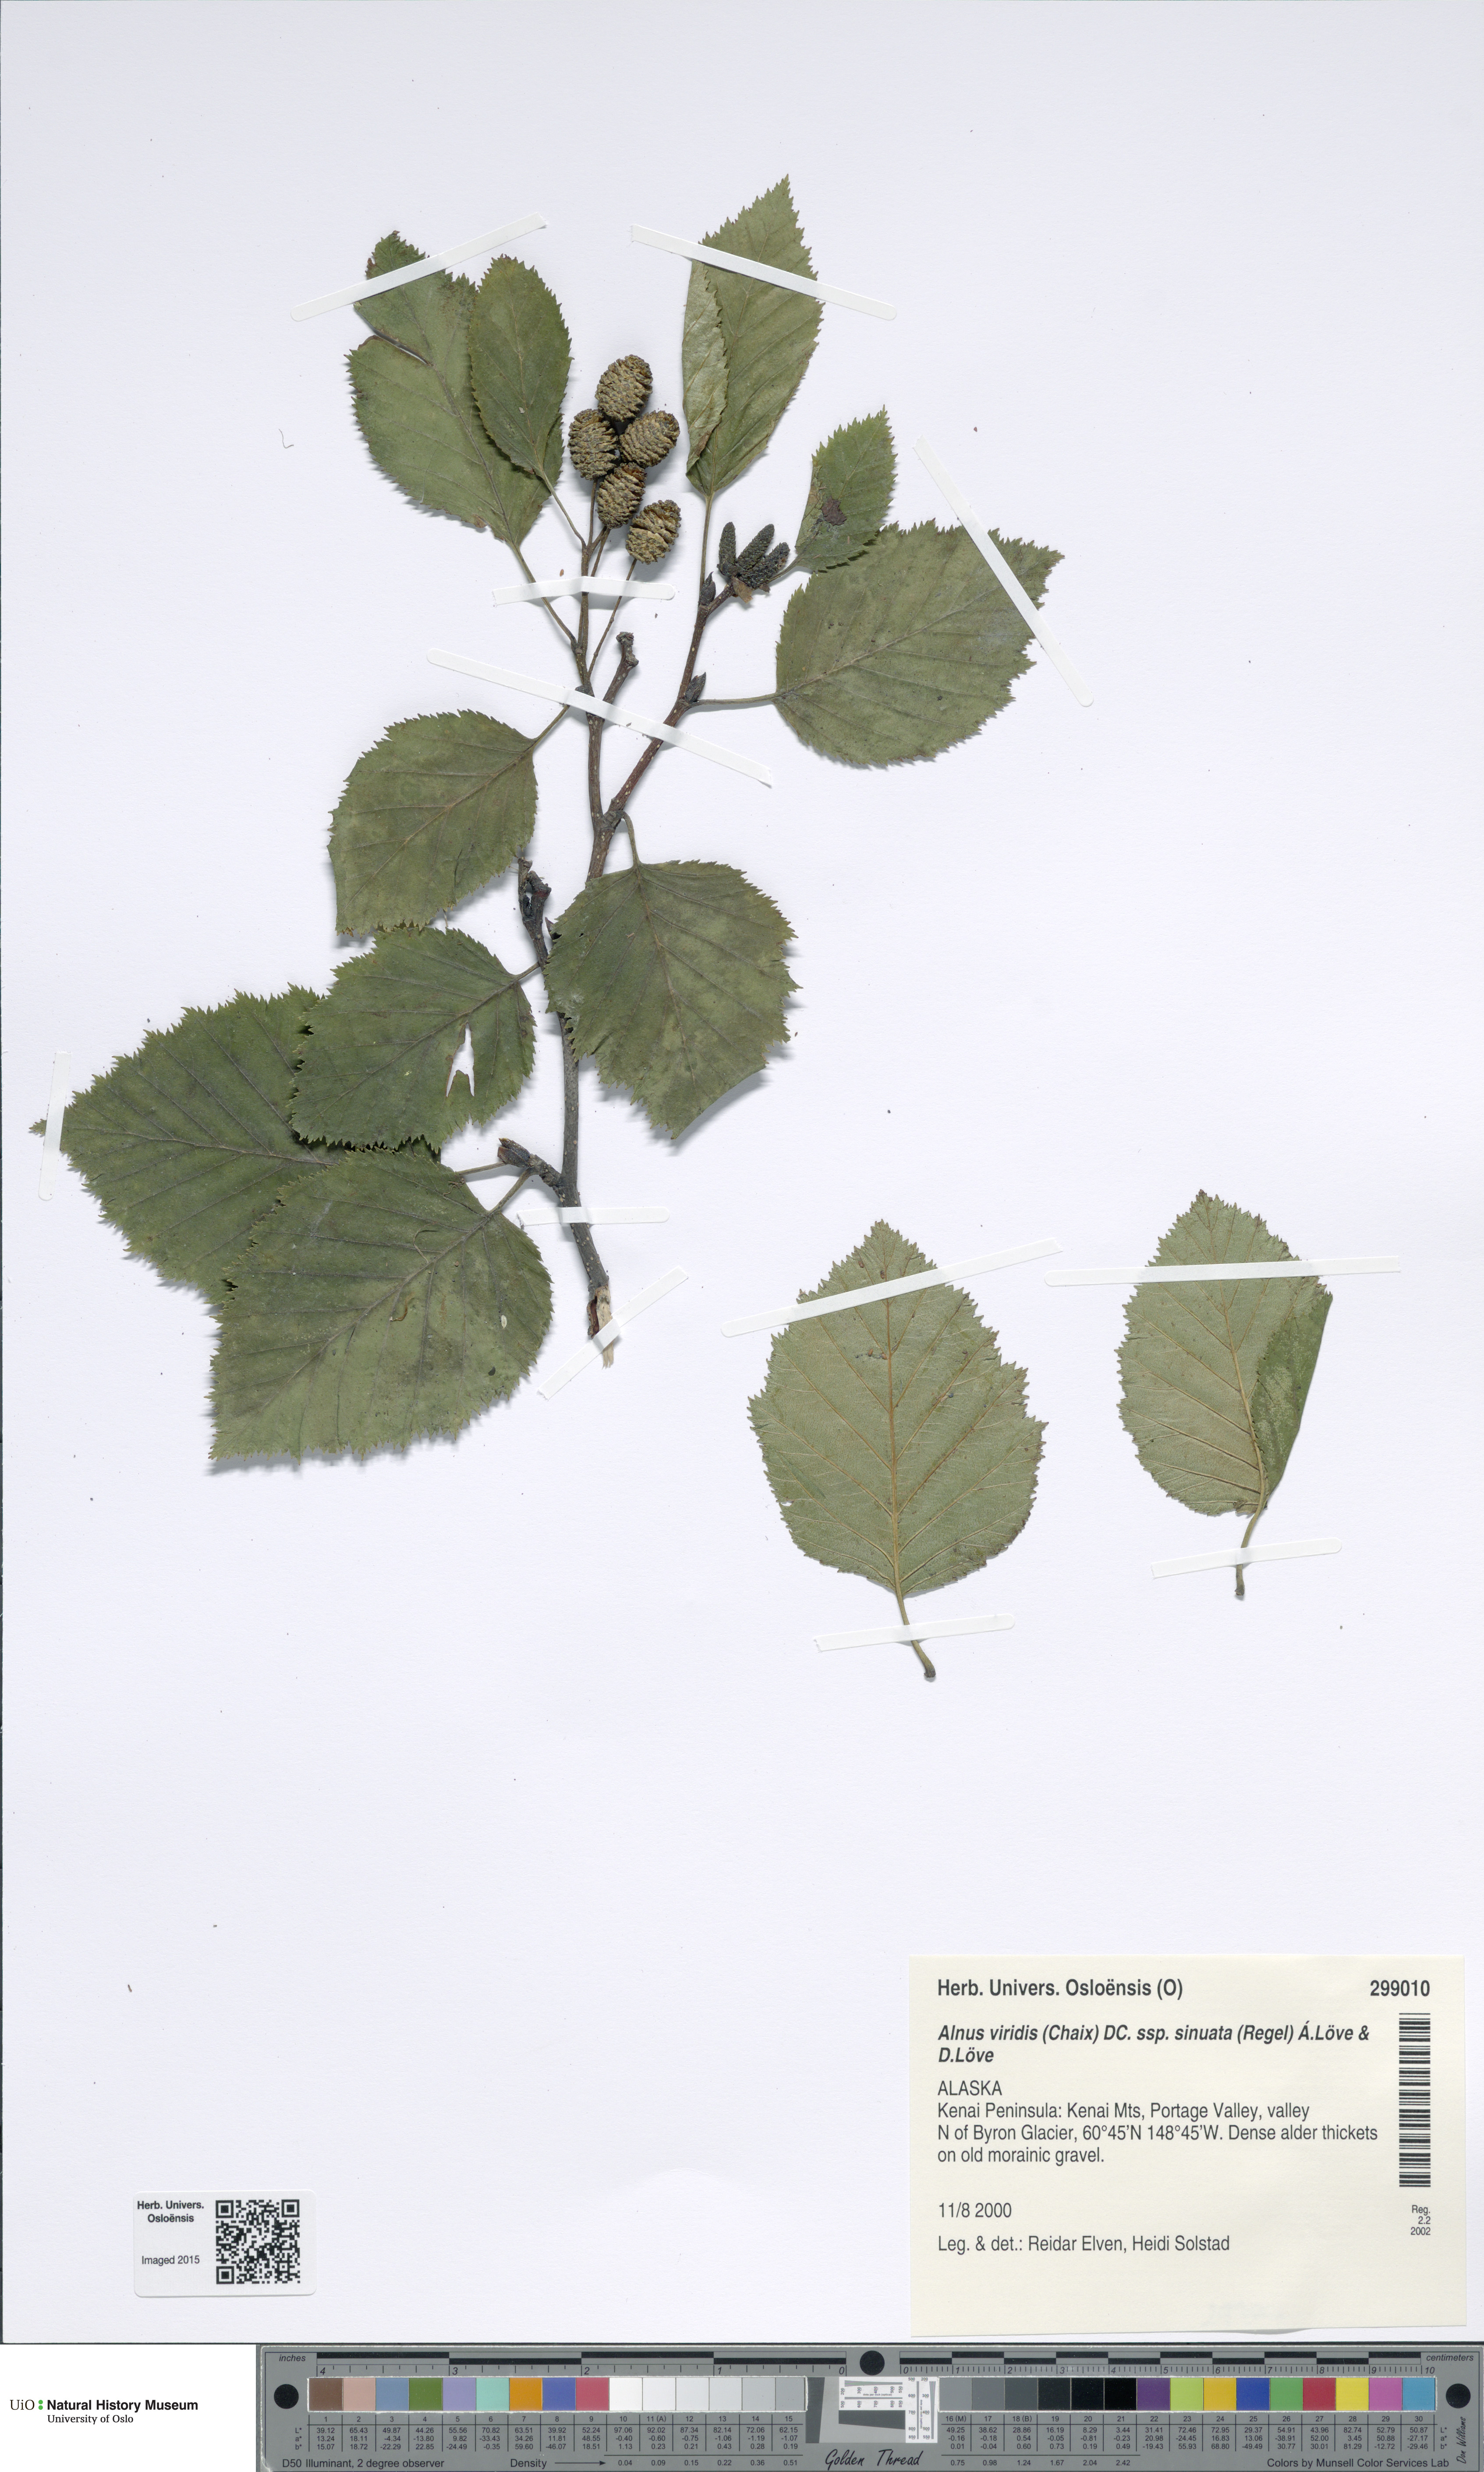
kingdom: Plantae
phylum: Tracheophyta
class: Magnoliopsida
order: Fagales
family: Betulaceae
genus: Alnus
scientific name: Alnus alnobetula
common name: Green alder
